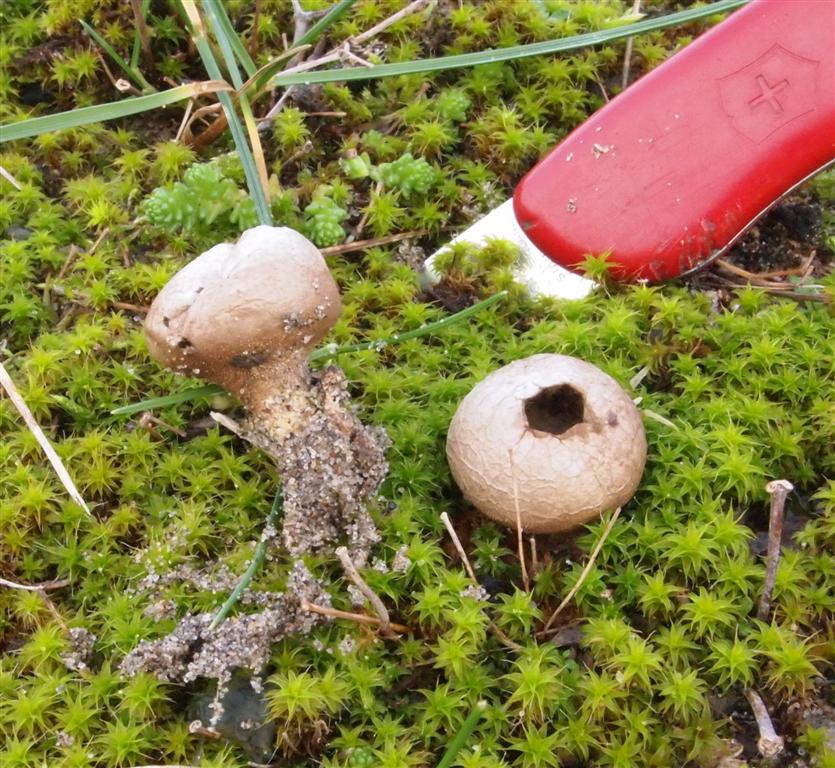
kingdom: Fungi
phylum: Basidiomycota
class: Agaricomycetes
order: Agaricales
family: Lycoperdaceae
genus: Lycoperdon
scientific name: Lycoperdon lividum
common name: mark-støvbold
